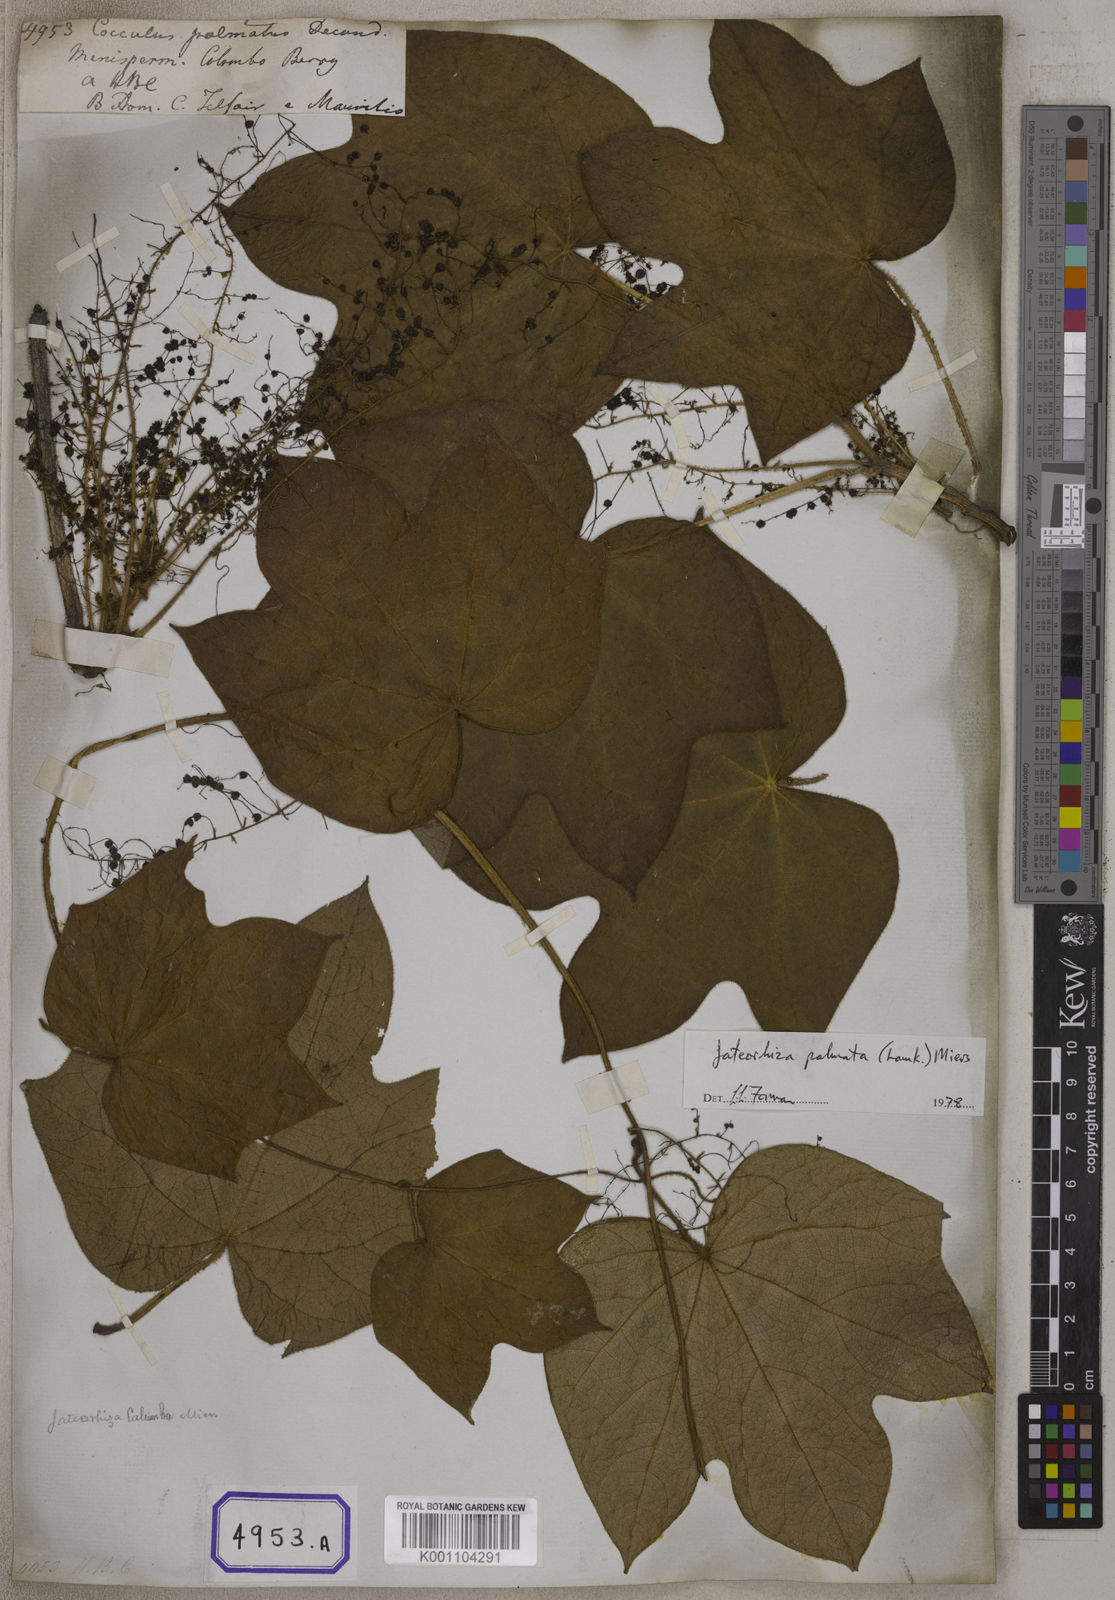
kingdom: Plantae
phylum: Tracheophyta
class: Magnoliopsida
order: Ranunculales
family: Menispermaceae
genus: Jateorhiza
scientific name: Jateorhiza palmata
